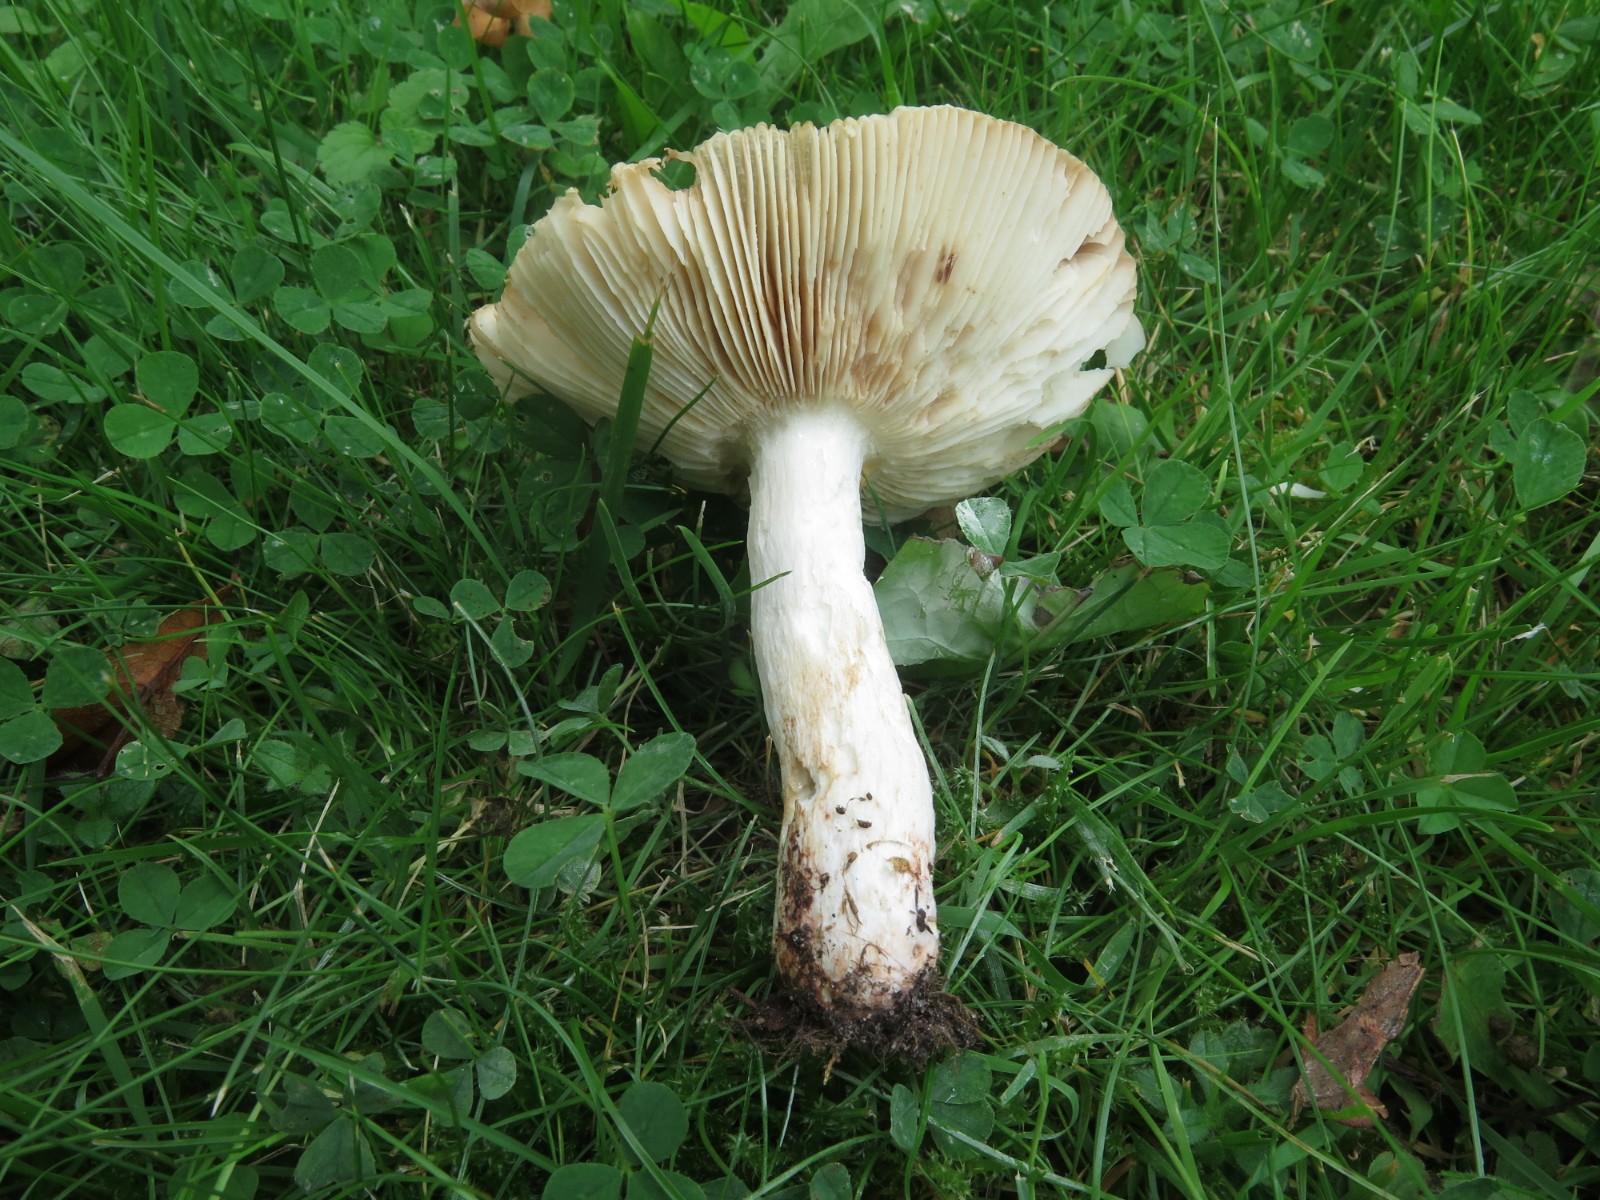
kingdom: Fungi
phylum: Basidiomycota
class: Agaricomycetes
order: Russulales
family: Russulaceae
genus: Russula
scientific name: Russula recondita
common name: mild kam-skørhat
